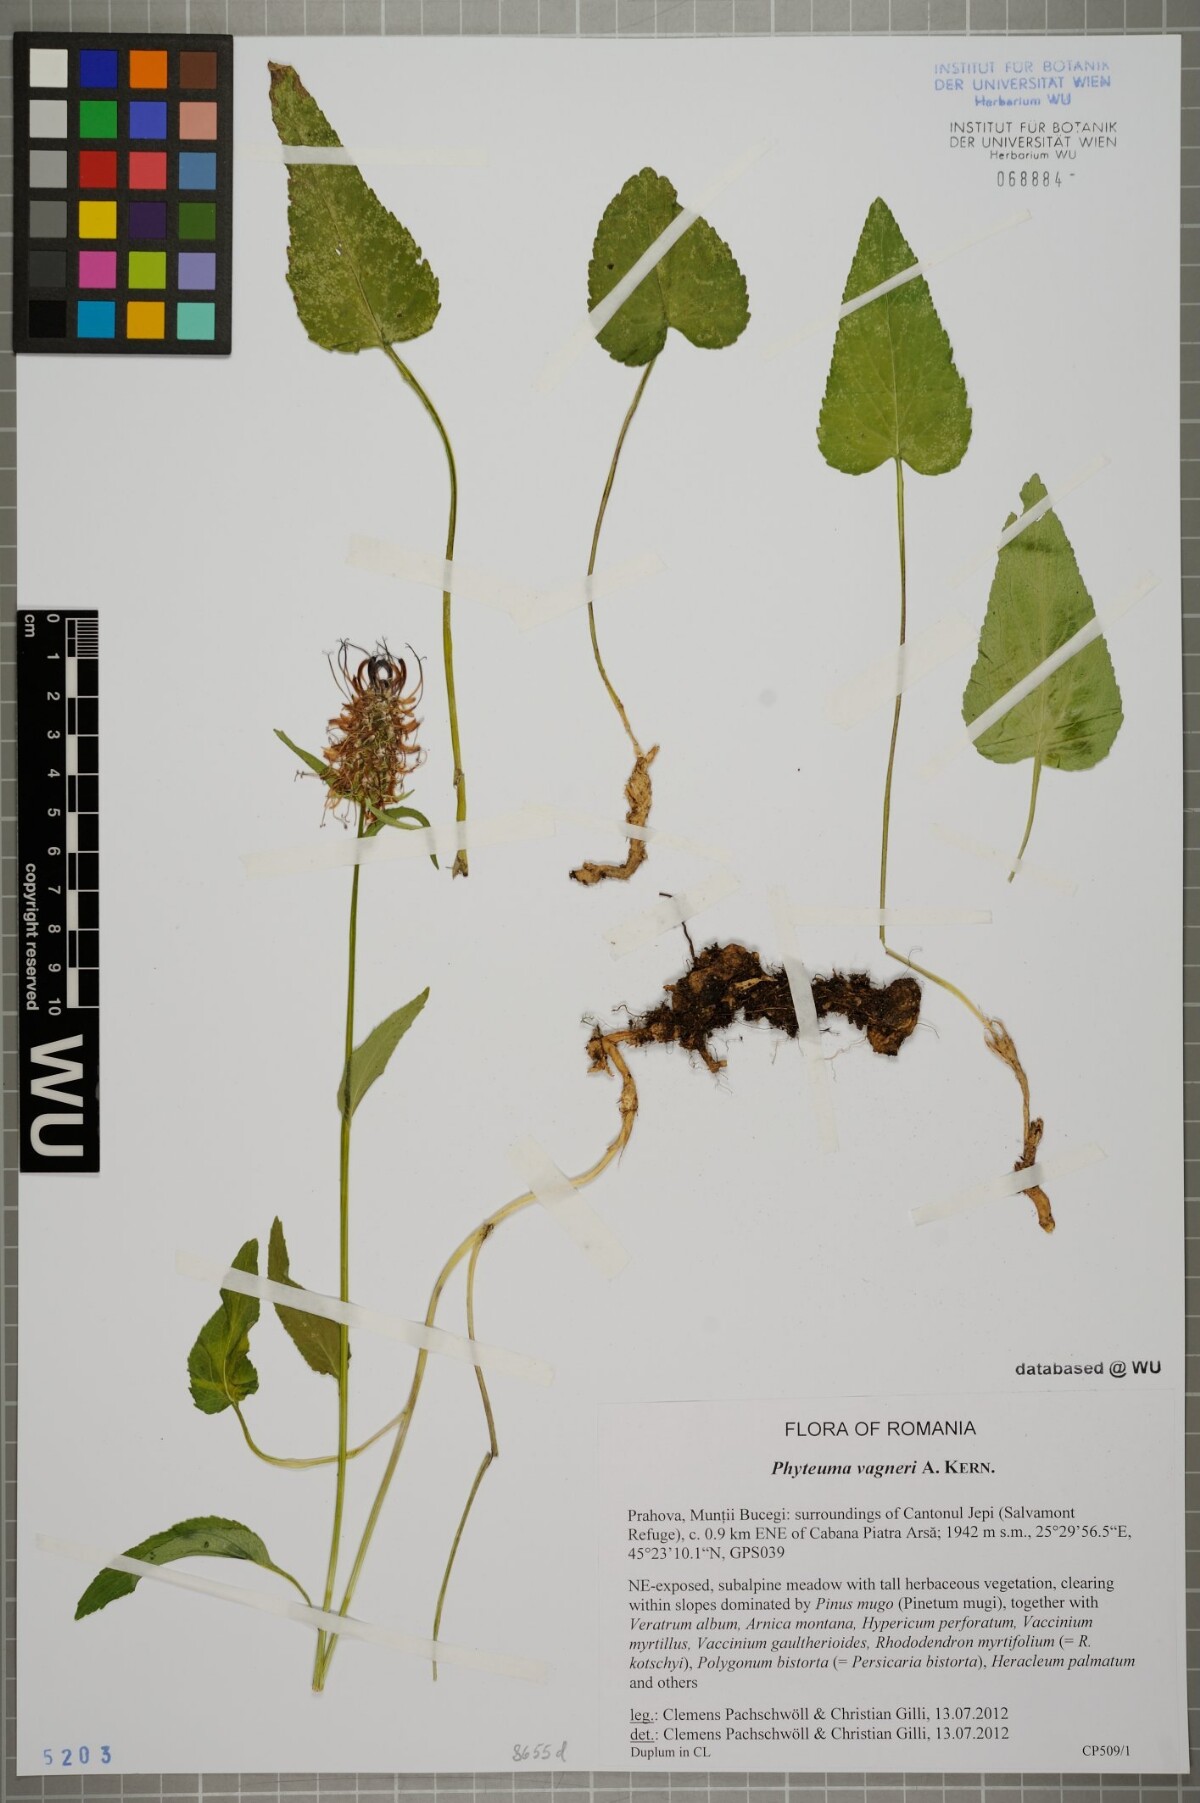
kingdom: Plantae
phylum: Tracheophyta
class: Magnoliopsida
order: Asterales
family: Campanulaceae
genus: Phyteuma
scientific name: Phyteuma vagneri
